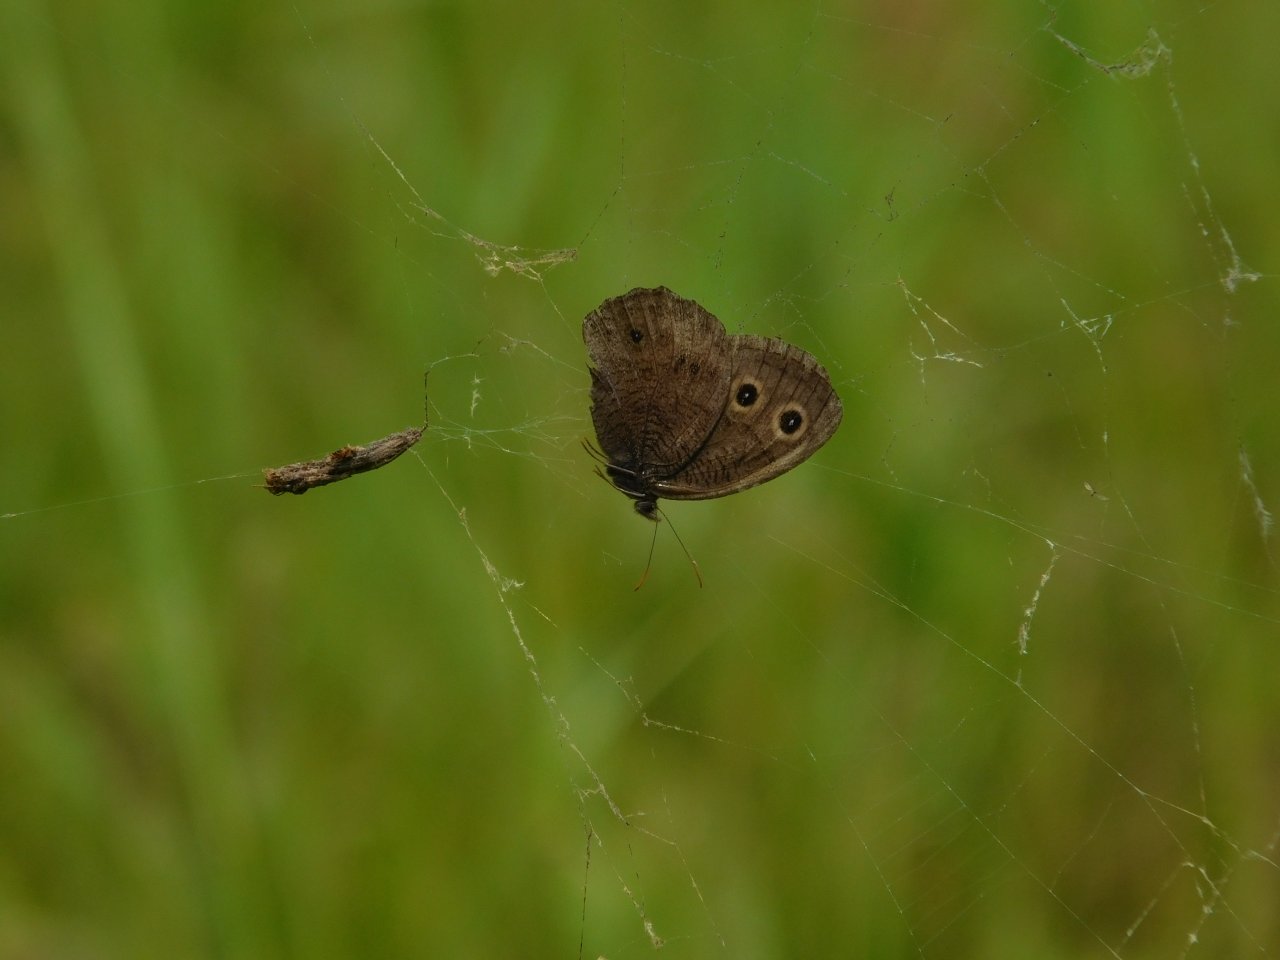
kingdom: Animalia
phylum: Arthropoda
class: Insecta
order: Lepidoptera
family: Nymphalidae
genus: Cercyonis
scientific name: Cercyonis pegala
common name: Common Wood-Nymph
